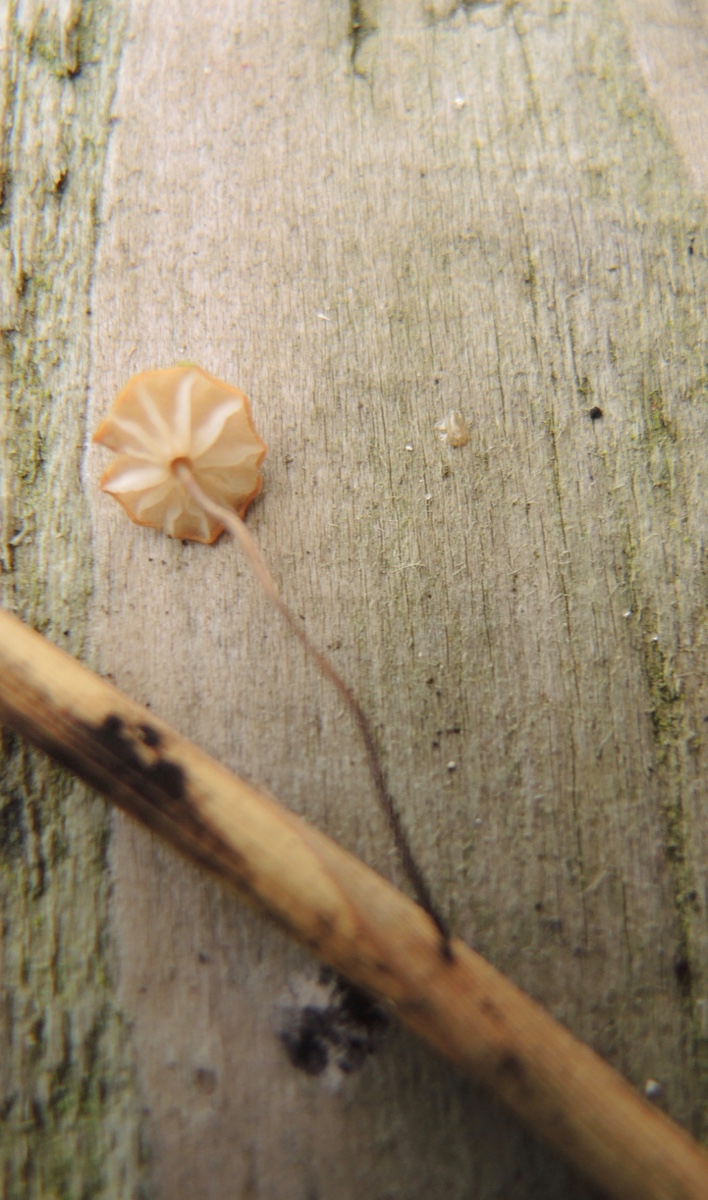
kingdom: Fungi
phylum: Basidiomycota
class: Agaricomycetes
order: Agaricales
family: Marasmiaceae
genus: Marasmius
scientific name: Marasmius curreyi
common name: teglrød bruskhat
